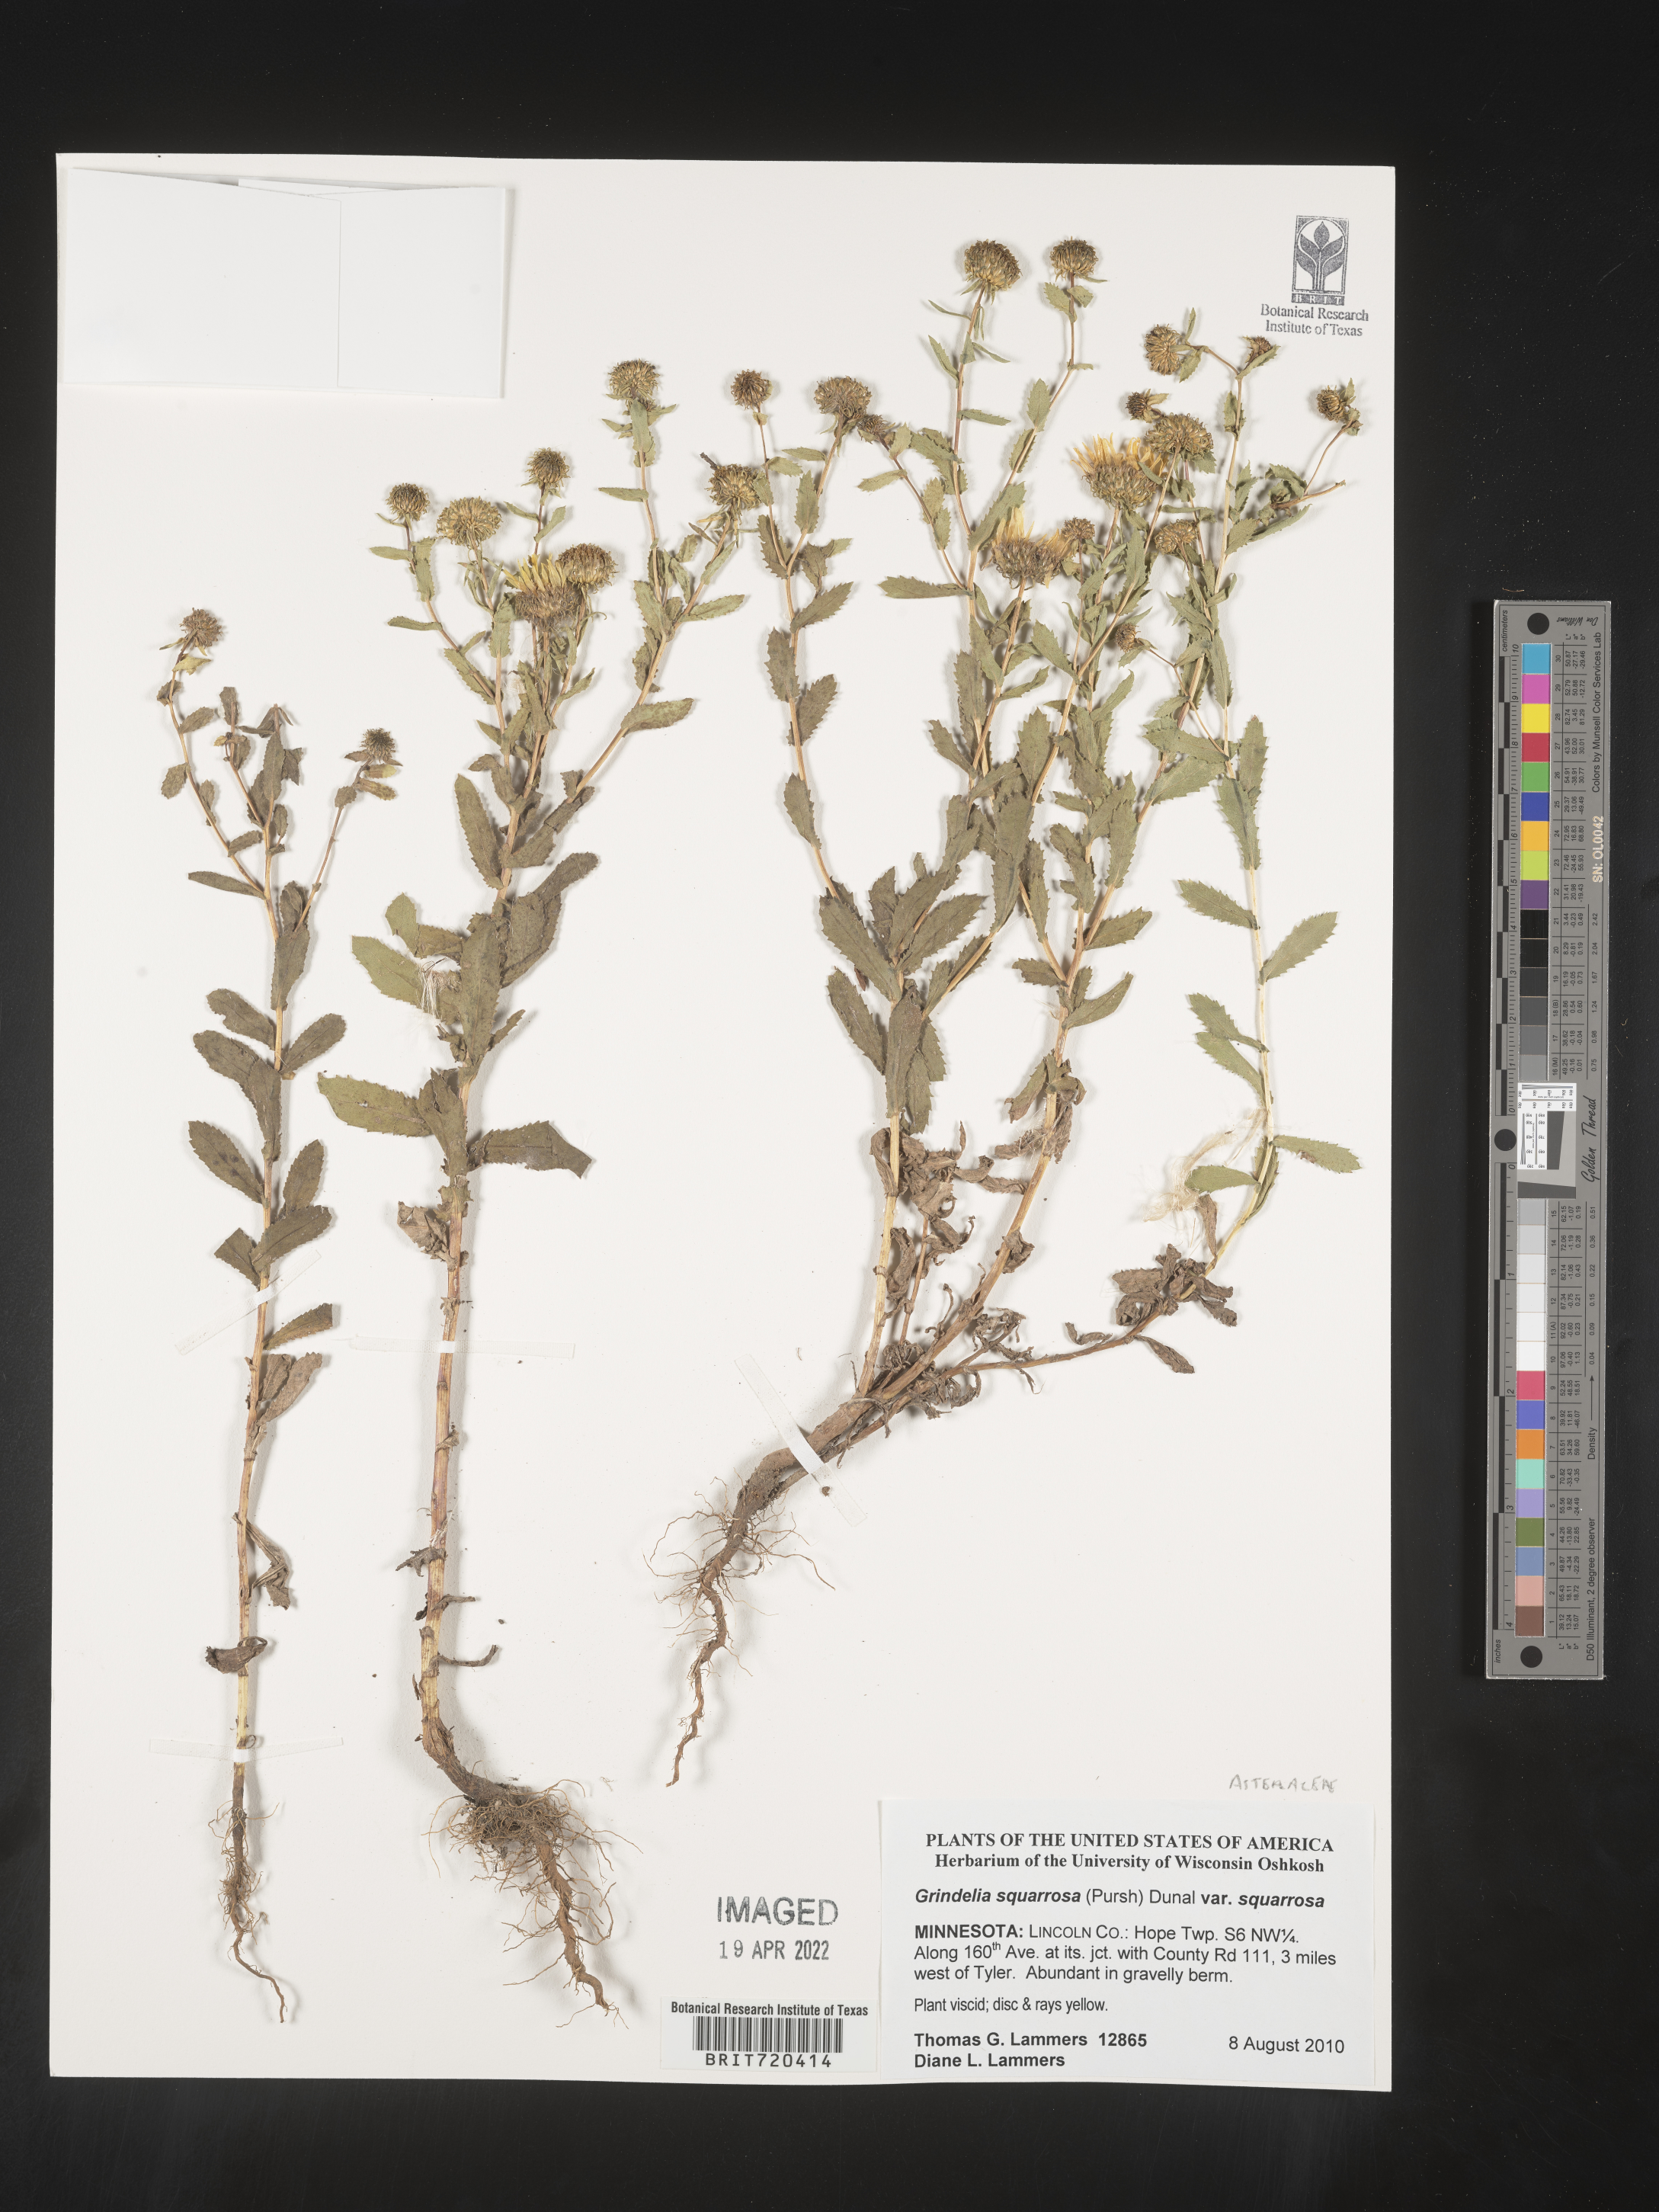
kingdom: Plantae
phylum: Tracheophyta
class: Magnoliopsida
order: Asterales
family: Asteraceae
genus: Grindelia
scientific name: Grindelia squarrosa
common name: Curly-cup gumweed
